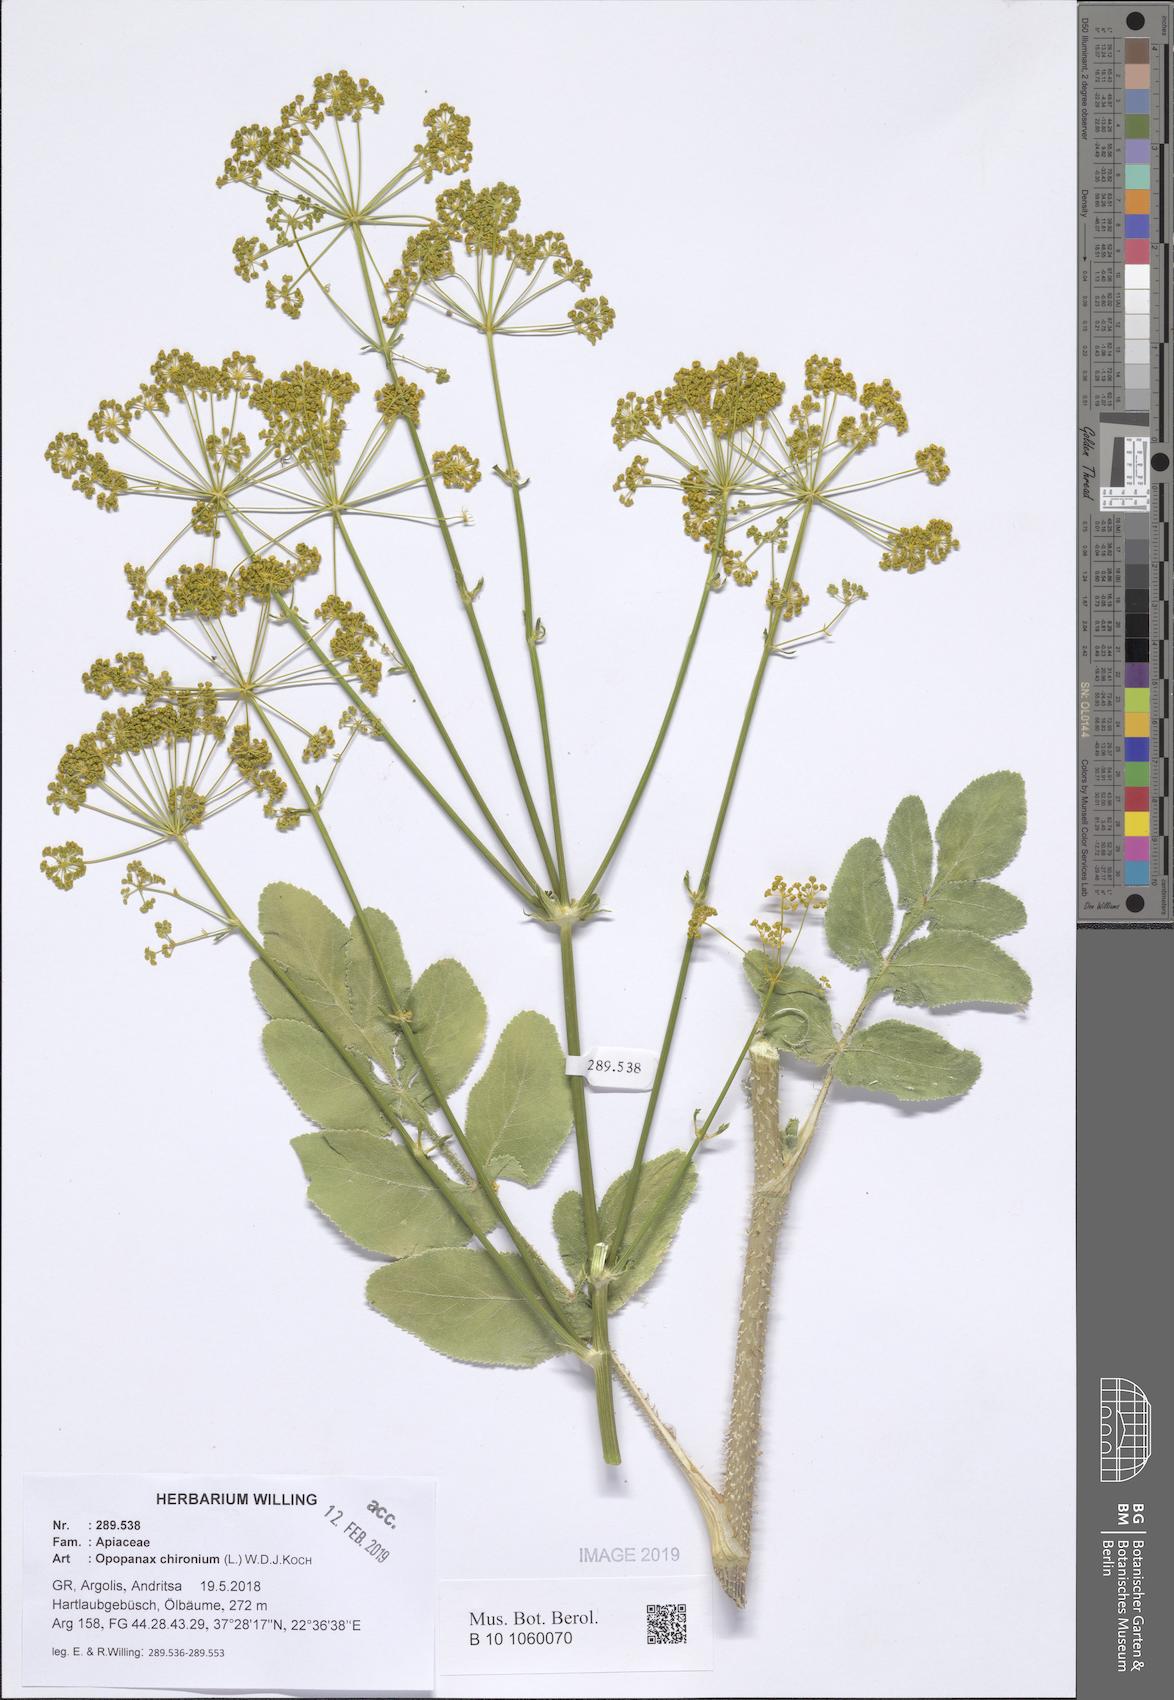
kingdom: Plantae
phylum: Tracheophyta
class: Magnoliopsida
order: Apiales
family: Apiaceae
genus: Opopanax
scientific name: Opopanax chironium
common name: Hercules-all-heal
